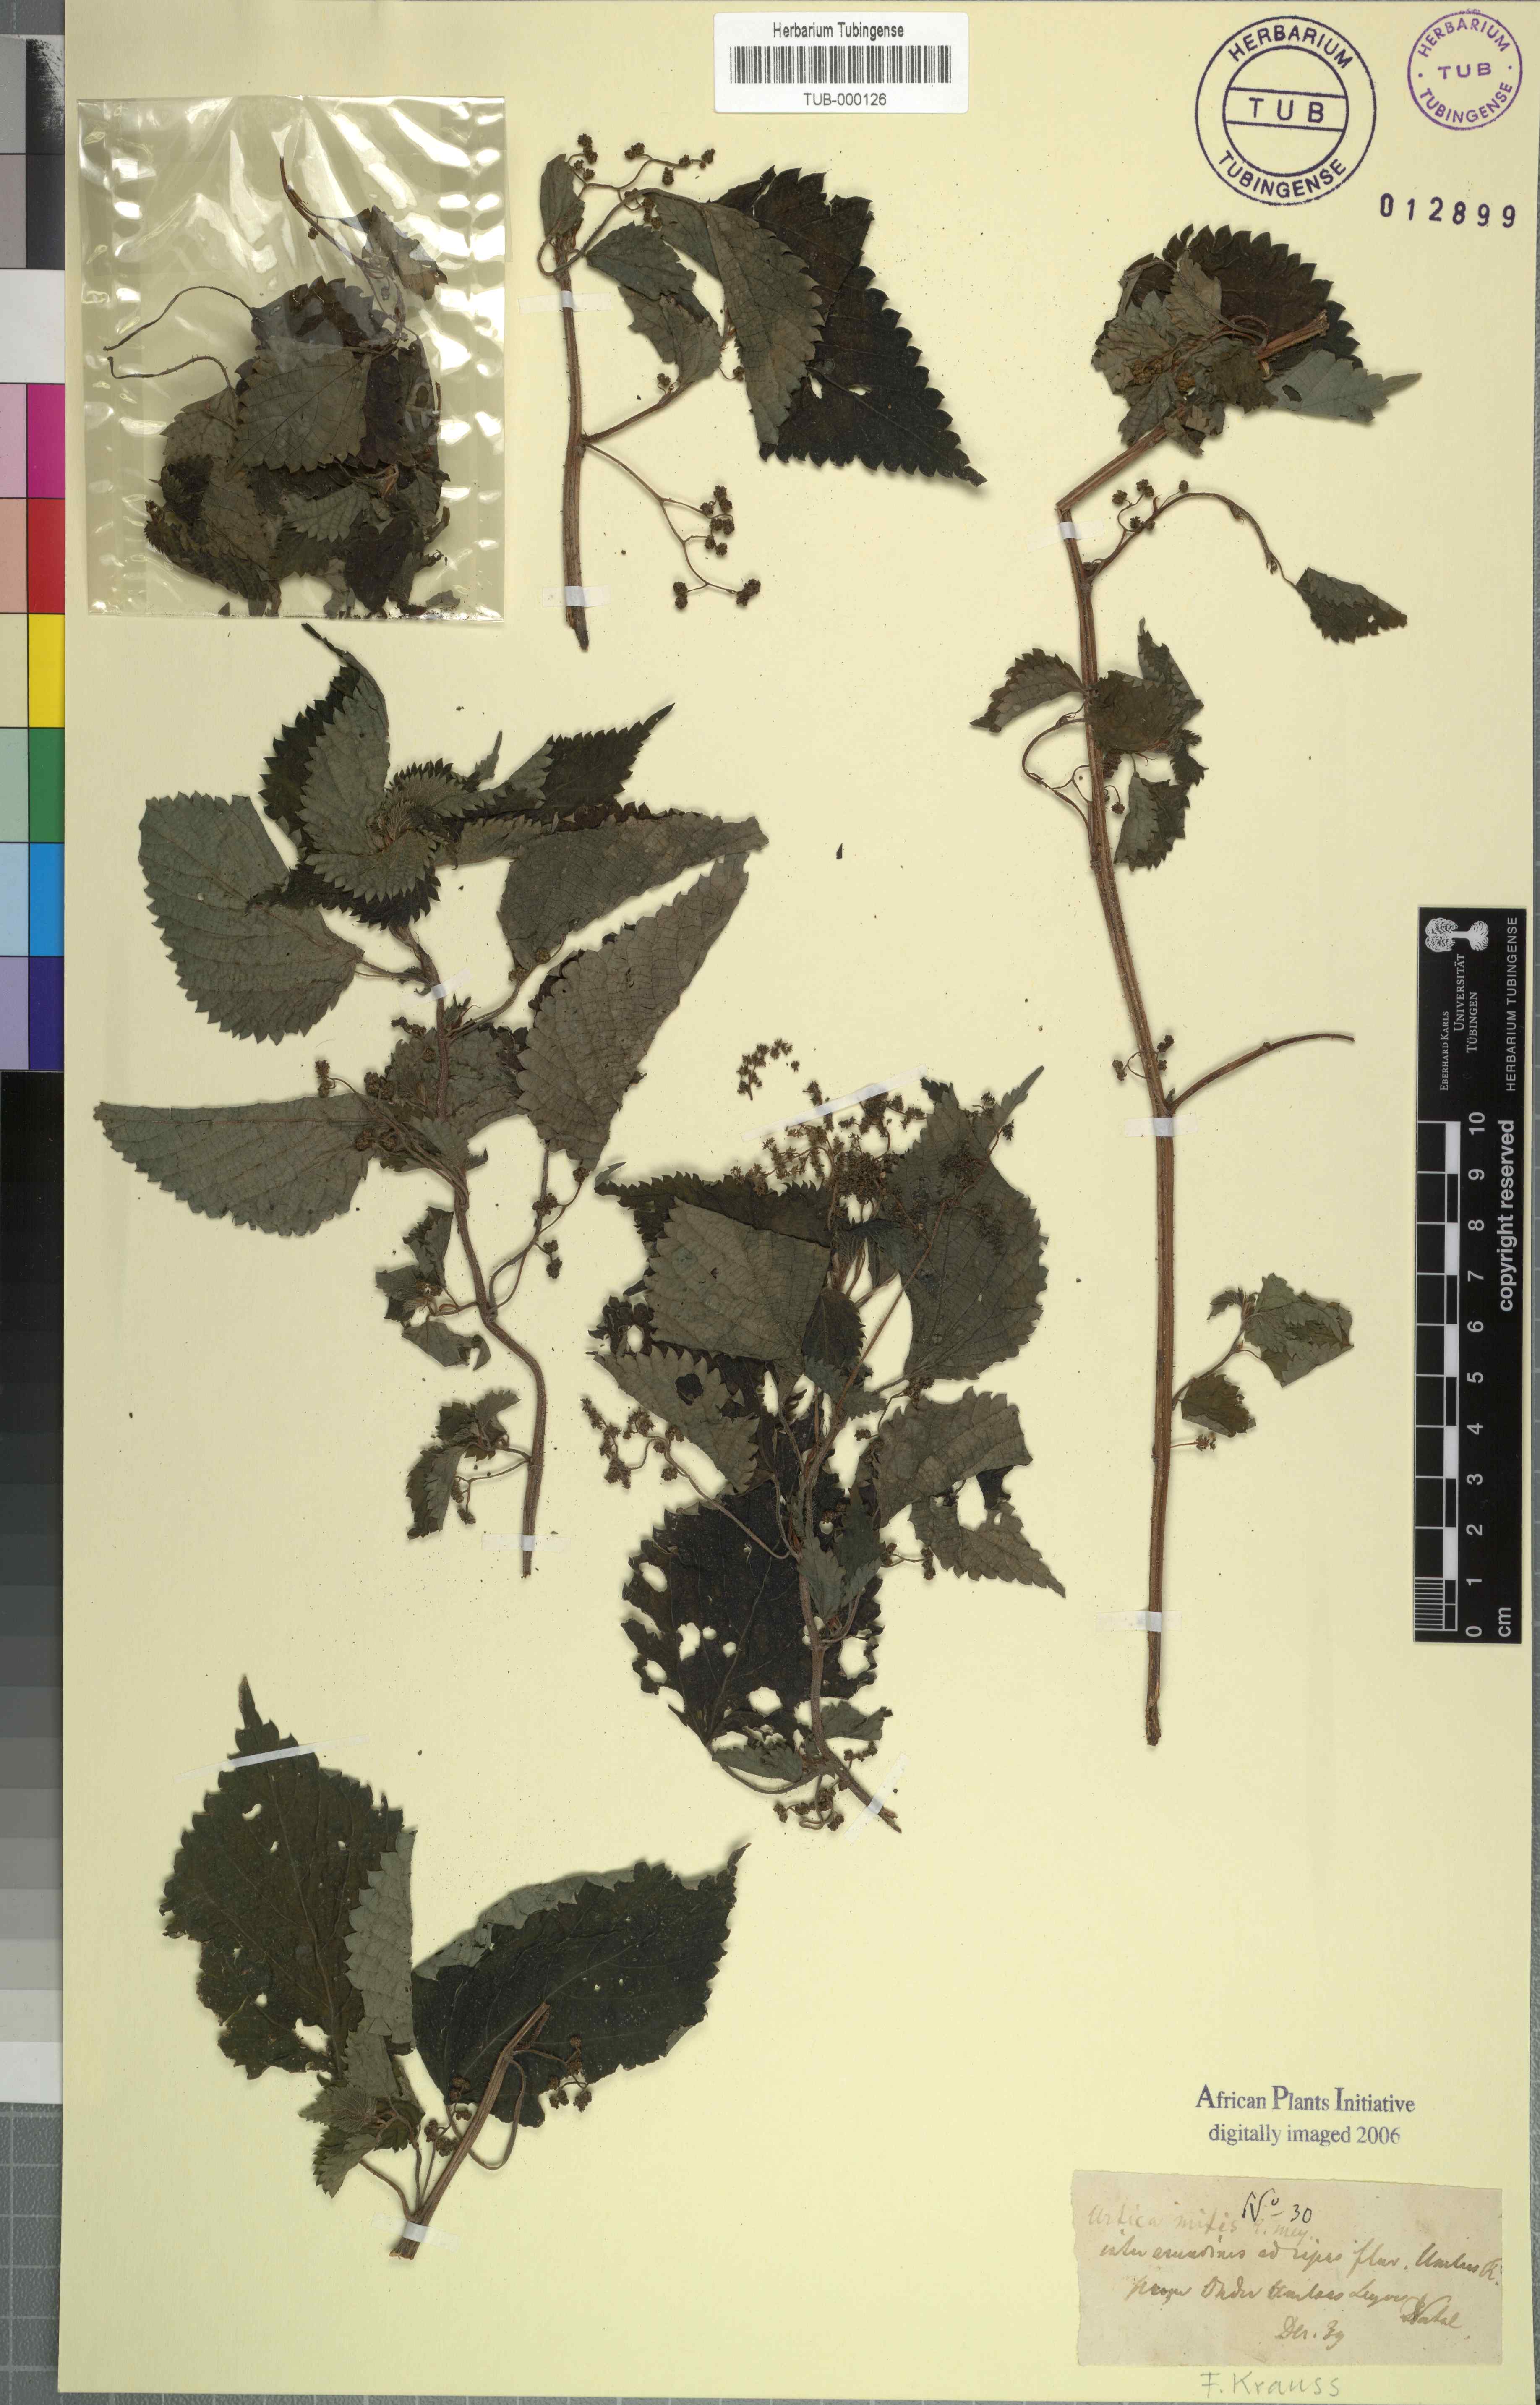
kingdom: Plantae
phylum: Tracheophyta
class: Magnoliopsida
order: Rosales
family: Urticaceae
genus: Didymodoxa
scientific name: Didymodoxa capensis
